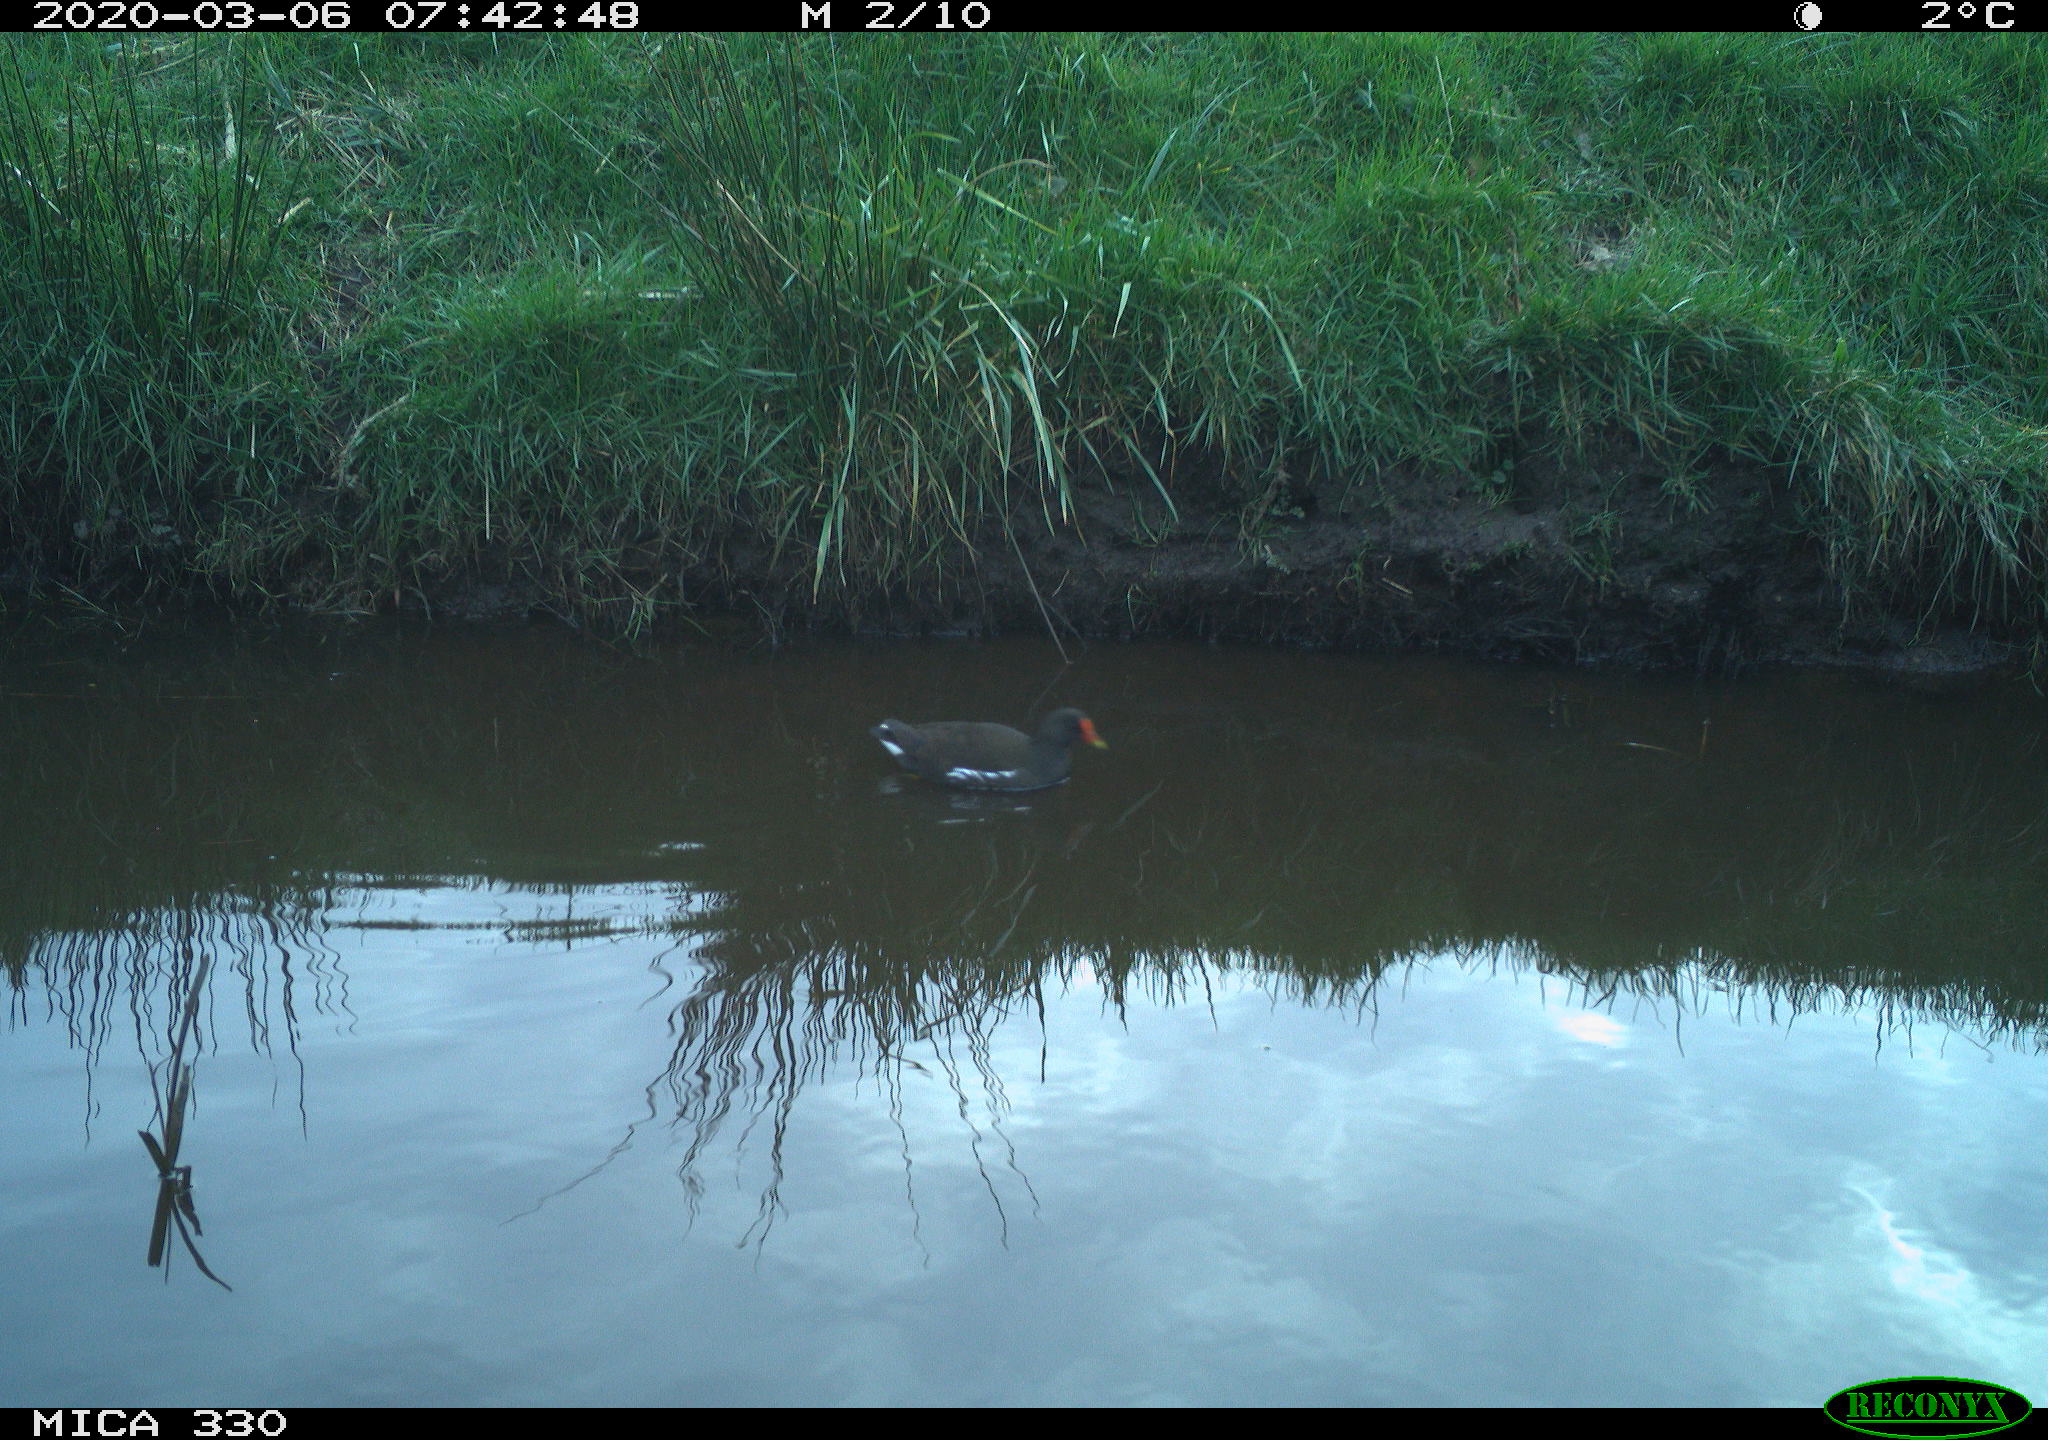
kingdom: Animalia
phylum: Chordata
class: Aves
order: Gruiformes
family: Rallidae
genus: Gallinula
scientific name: Gallinula chloropus
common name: Common moorhen
